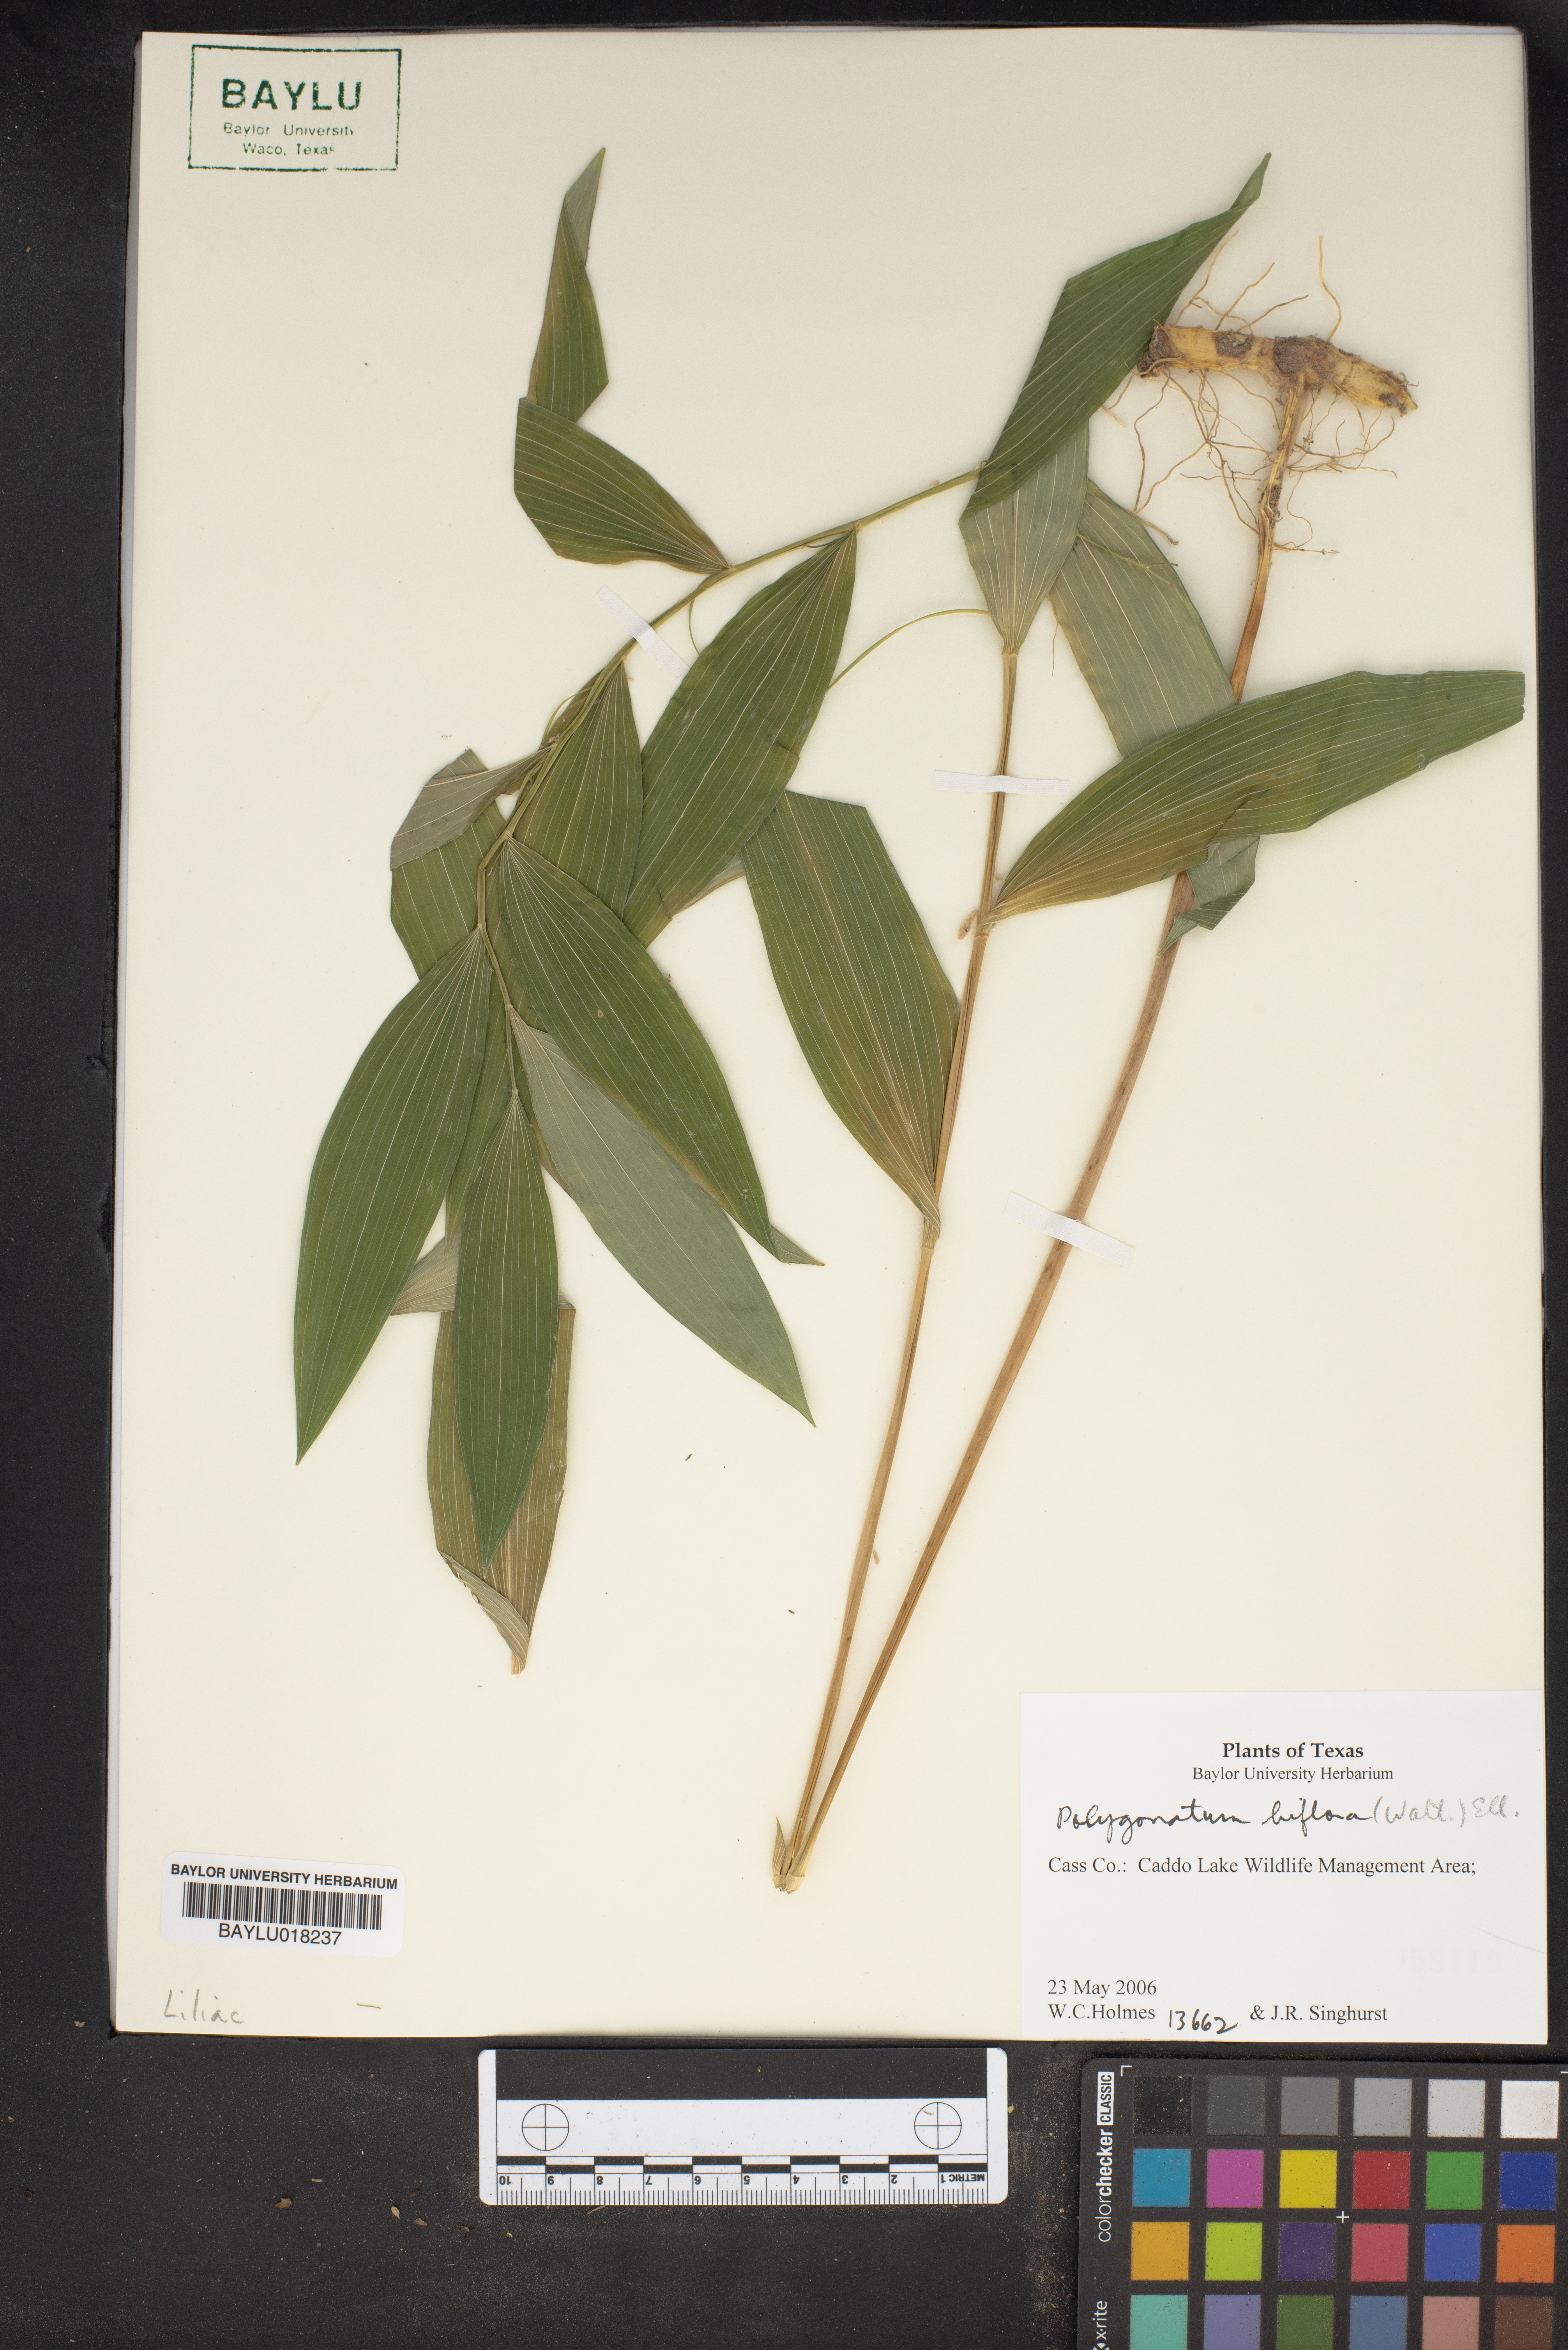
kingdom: Plantae
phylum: Tracheophyta
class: Liliopsida
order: Asparagales
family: Asparagaceae
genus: Polygonatum
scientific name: Polygonatum biflorum
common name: American solomon's-seal
